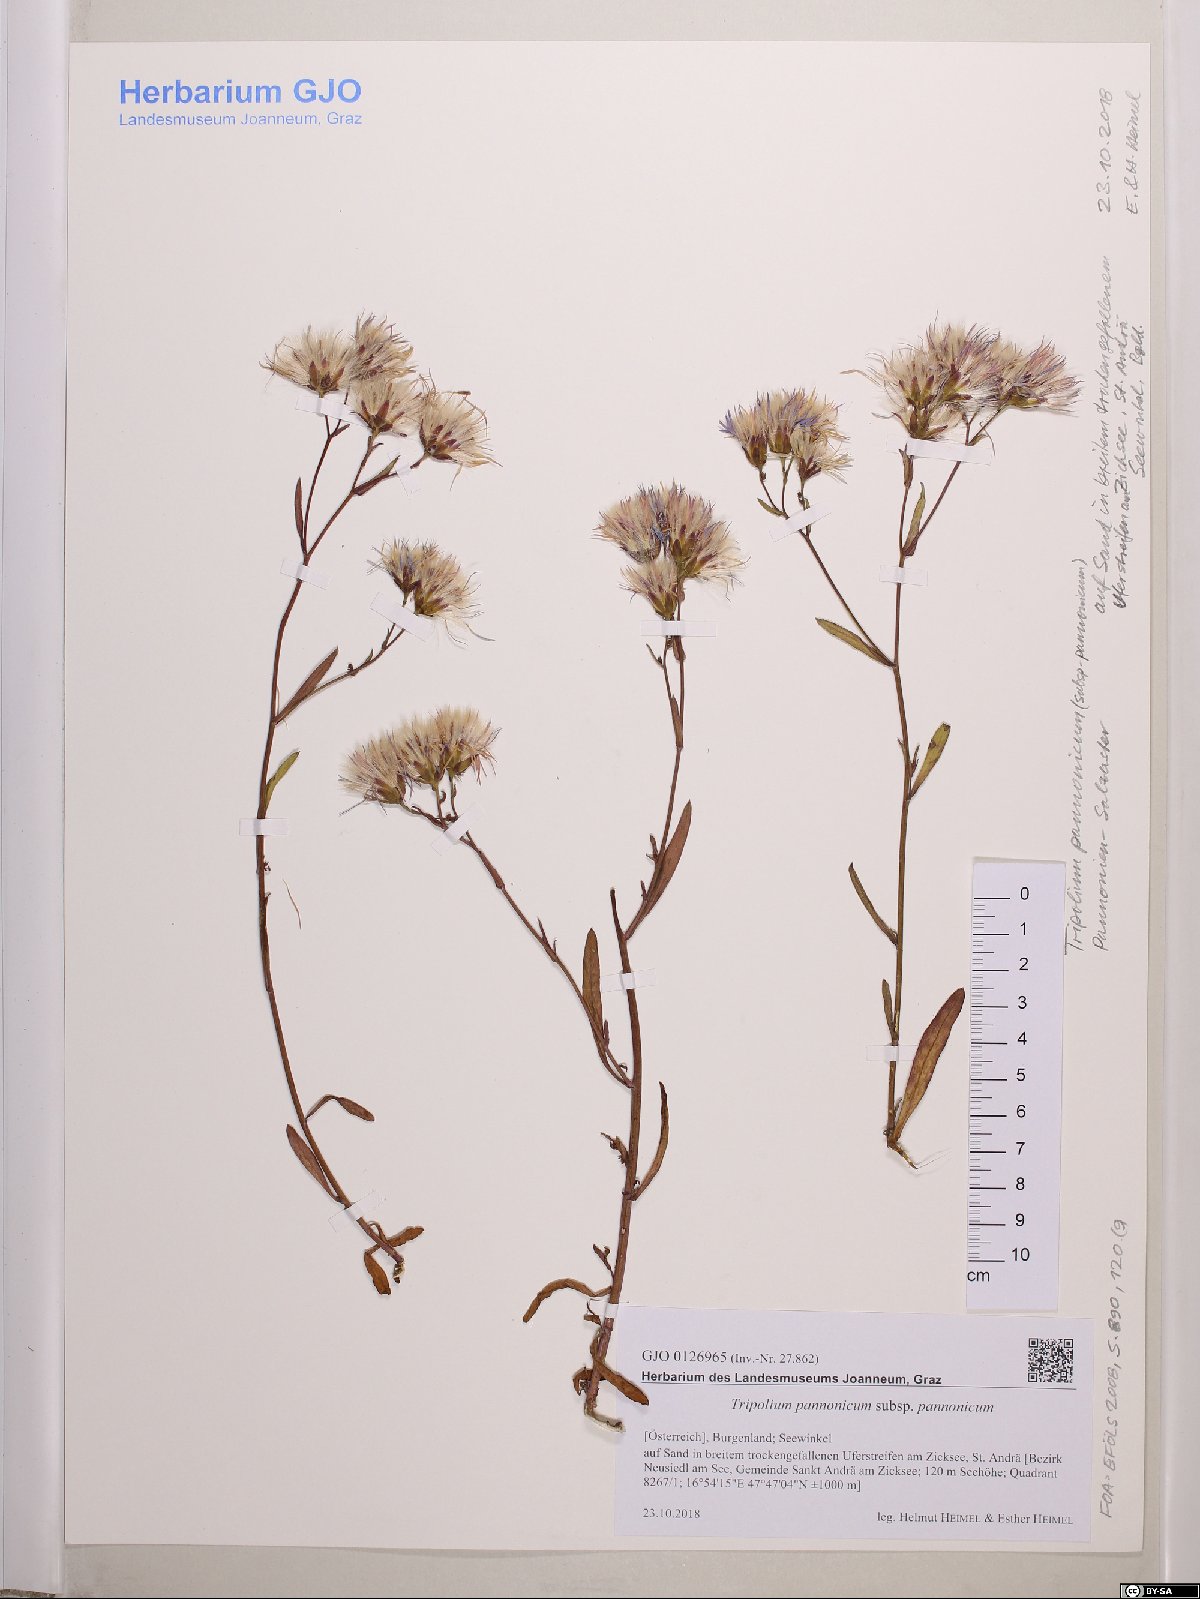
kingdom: Plantae
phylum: Tracheophyta
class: Magnoliopsida
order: Asterales
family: Asteraceae
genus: Tripolium
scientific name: Tripolium pannonicum
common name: Sea aster
